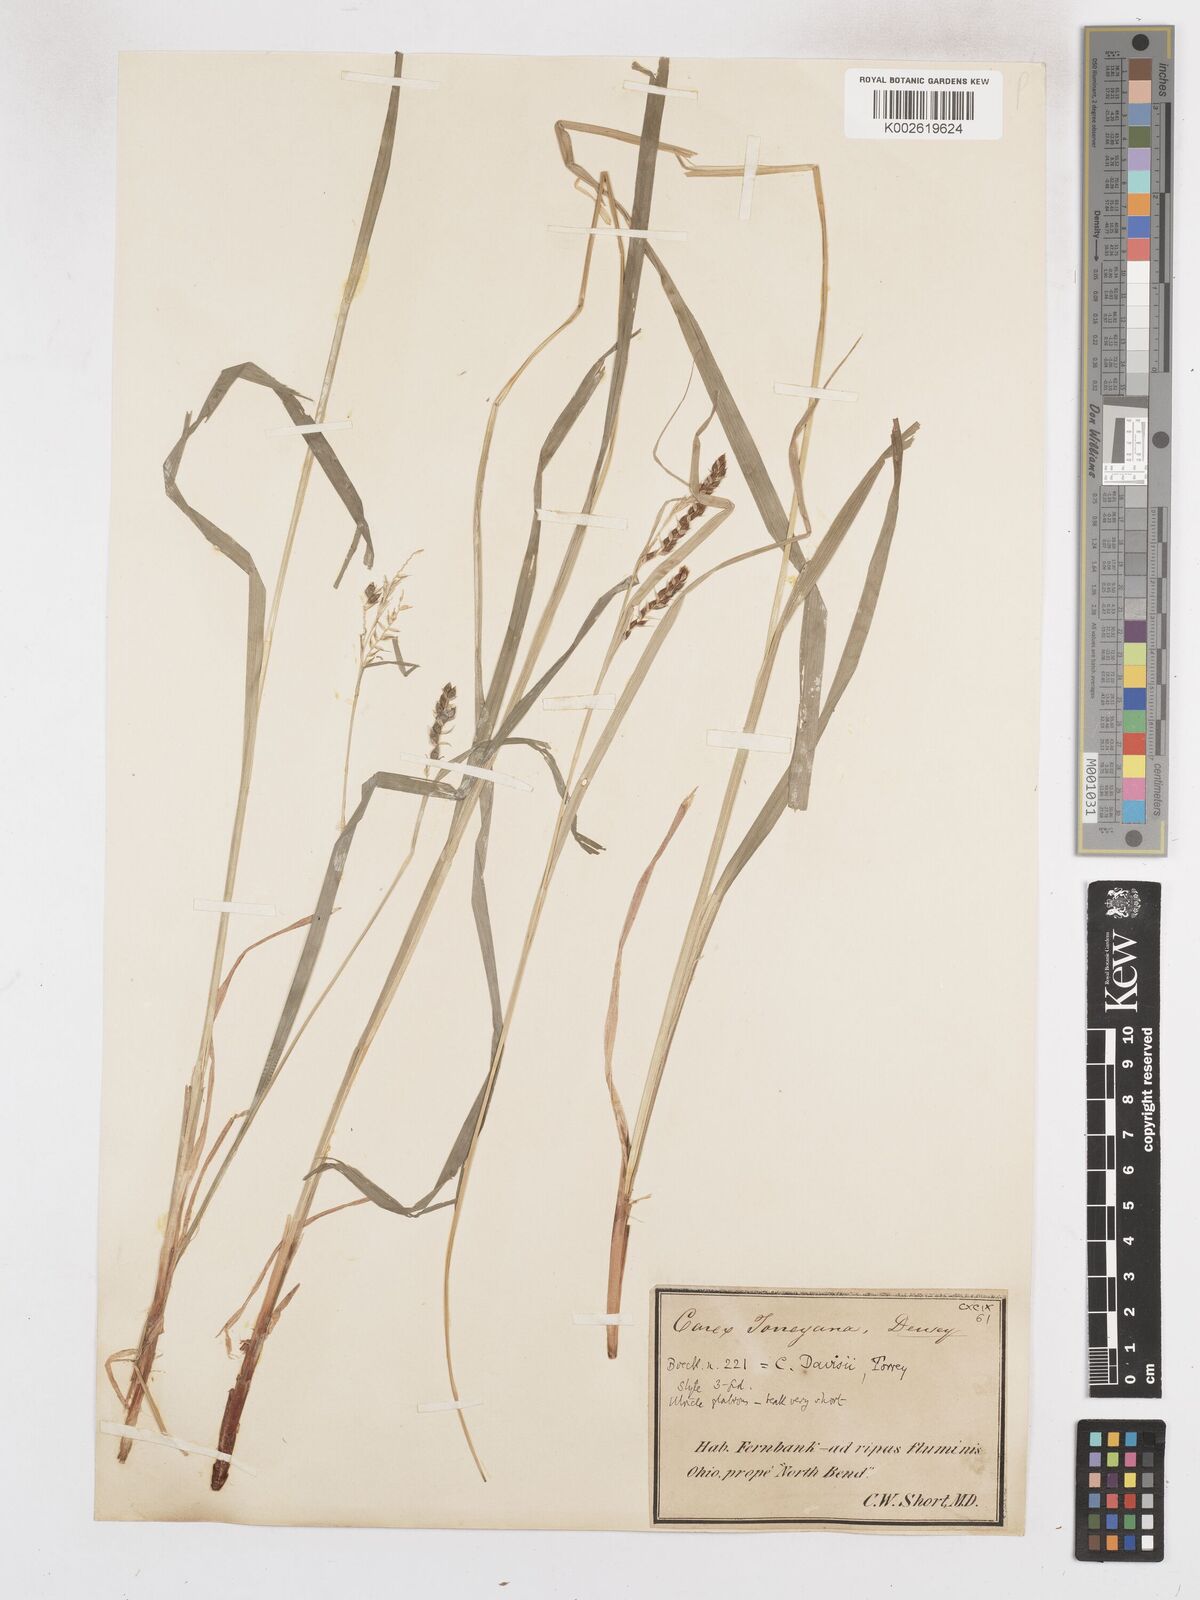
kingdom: Plantae
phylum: Tracheophyta
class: Liliopsida
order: Poales
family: Cyperaceae
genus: Carex
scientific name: Carex davisii
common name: Davis' sedge
